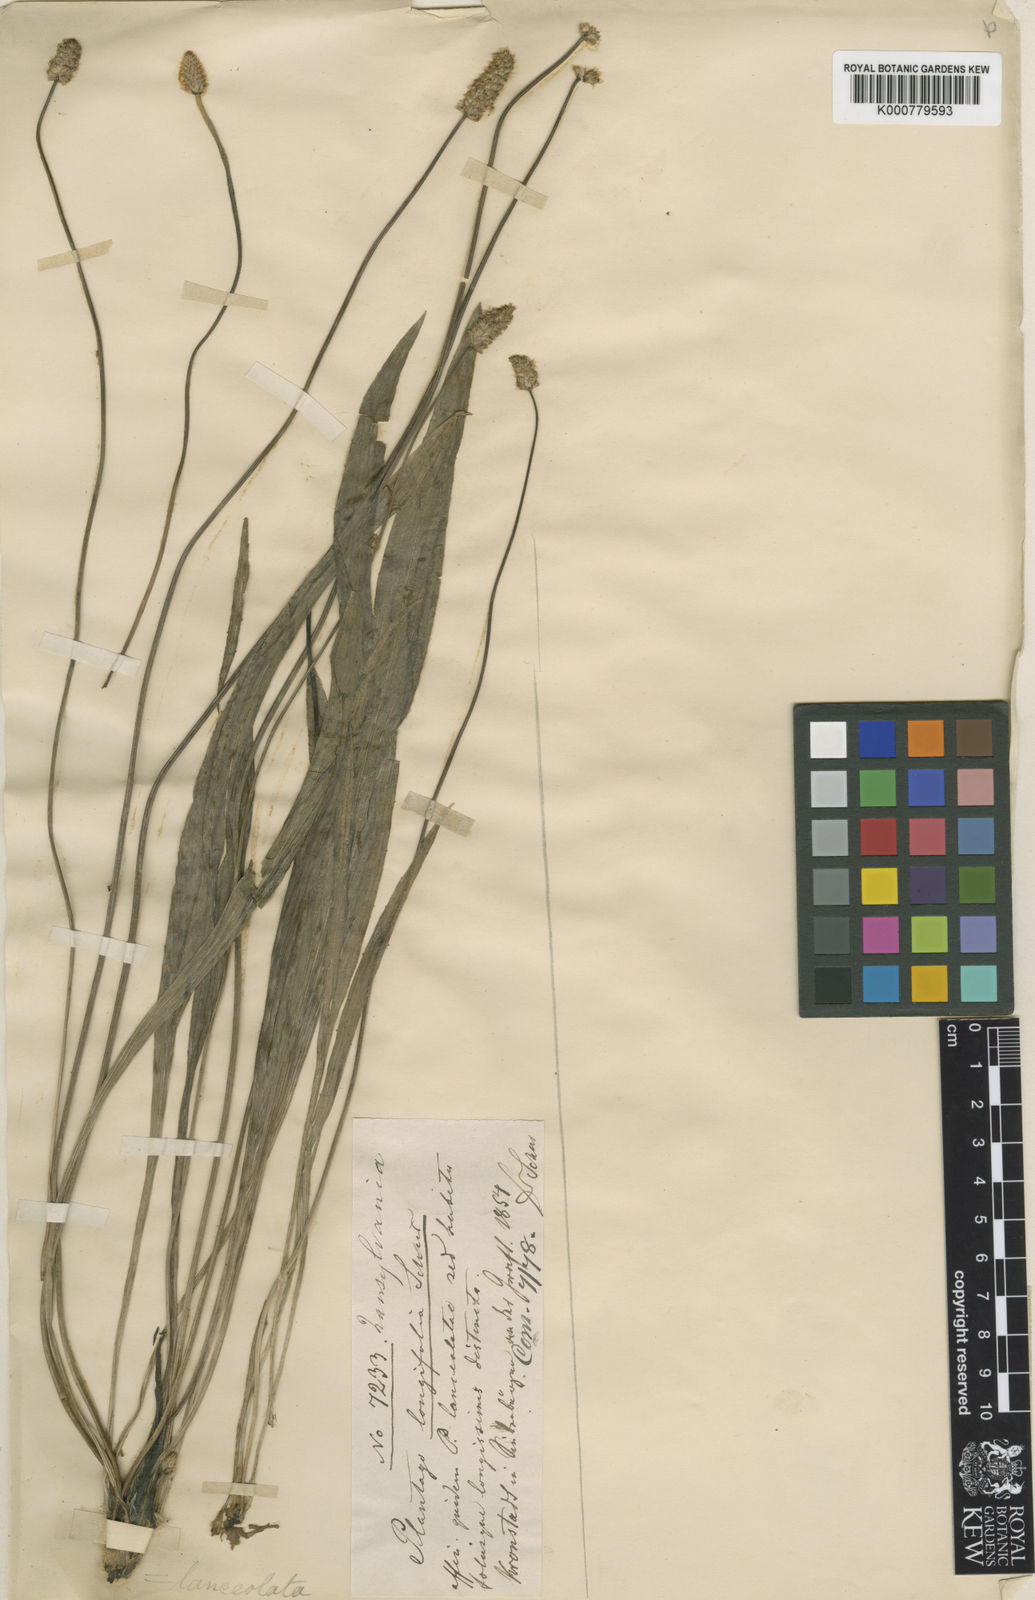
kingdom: Plantae
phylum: Tracheophyta
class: Magnoliopsida
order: Lamiales
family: Plantaginaceae
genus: Plantago
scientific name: Plantago lanceolata
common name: Ribwort plantain
